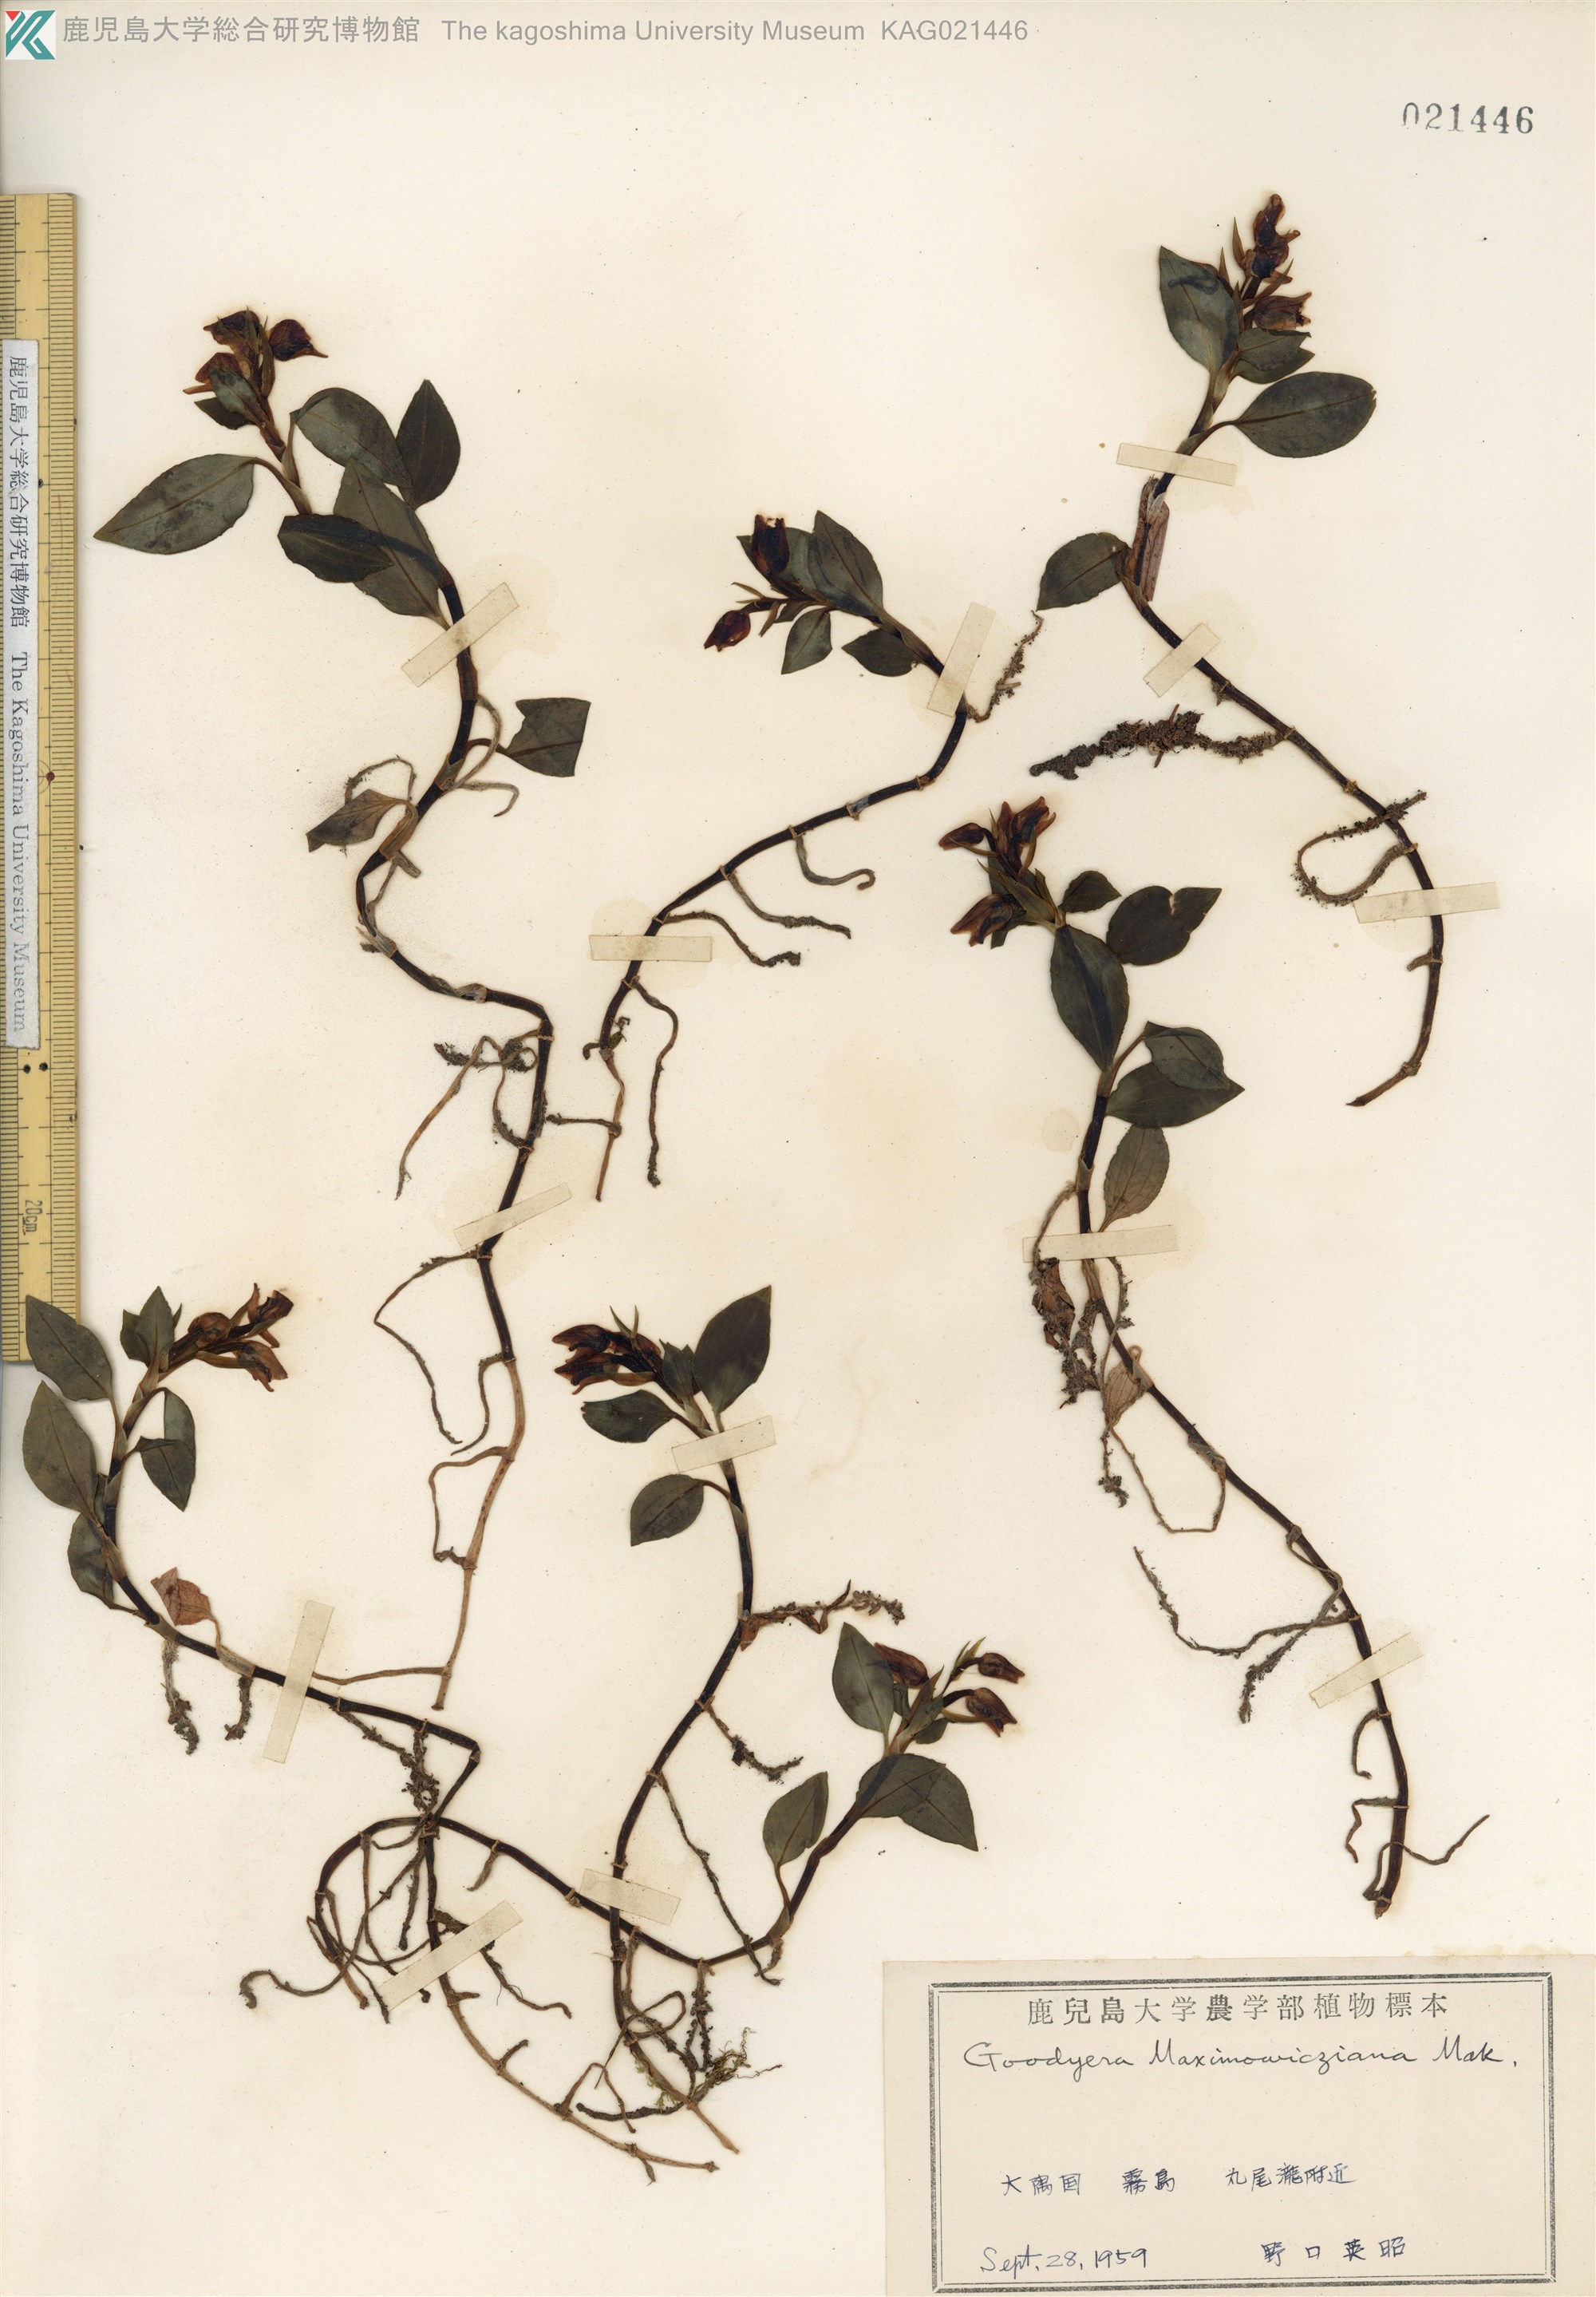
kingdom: Plantae
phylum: Tracheophyta
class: Liliopsida
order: Asparagales
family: Orchidaceae
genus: Goodyera
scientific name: Goodyera henryi
